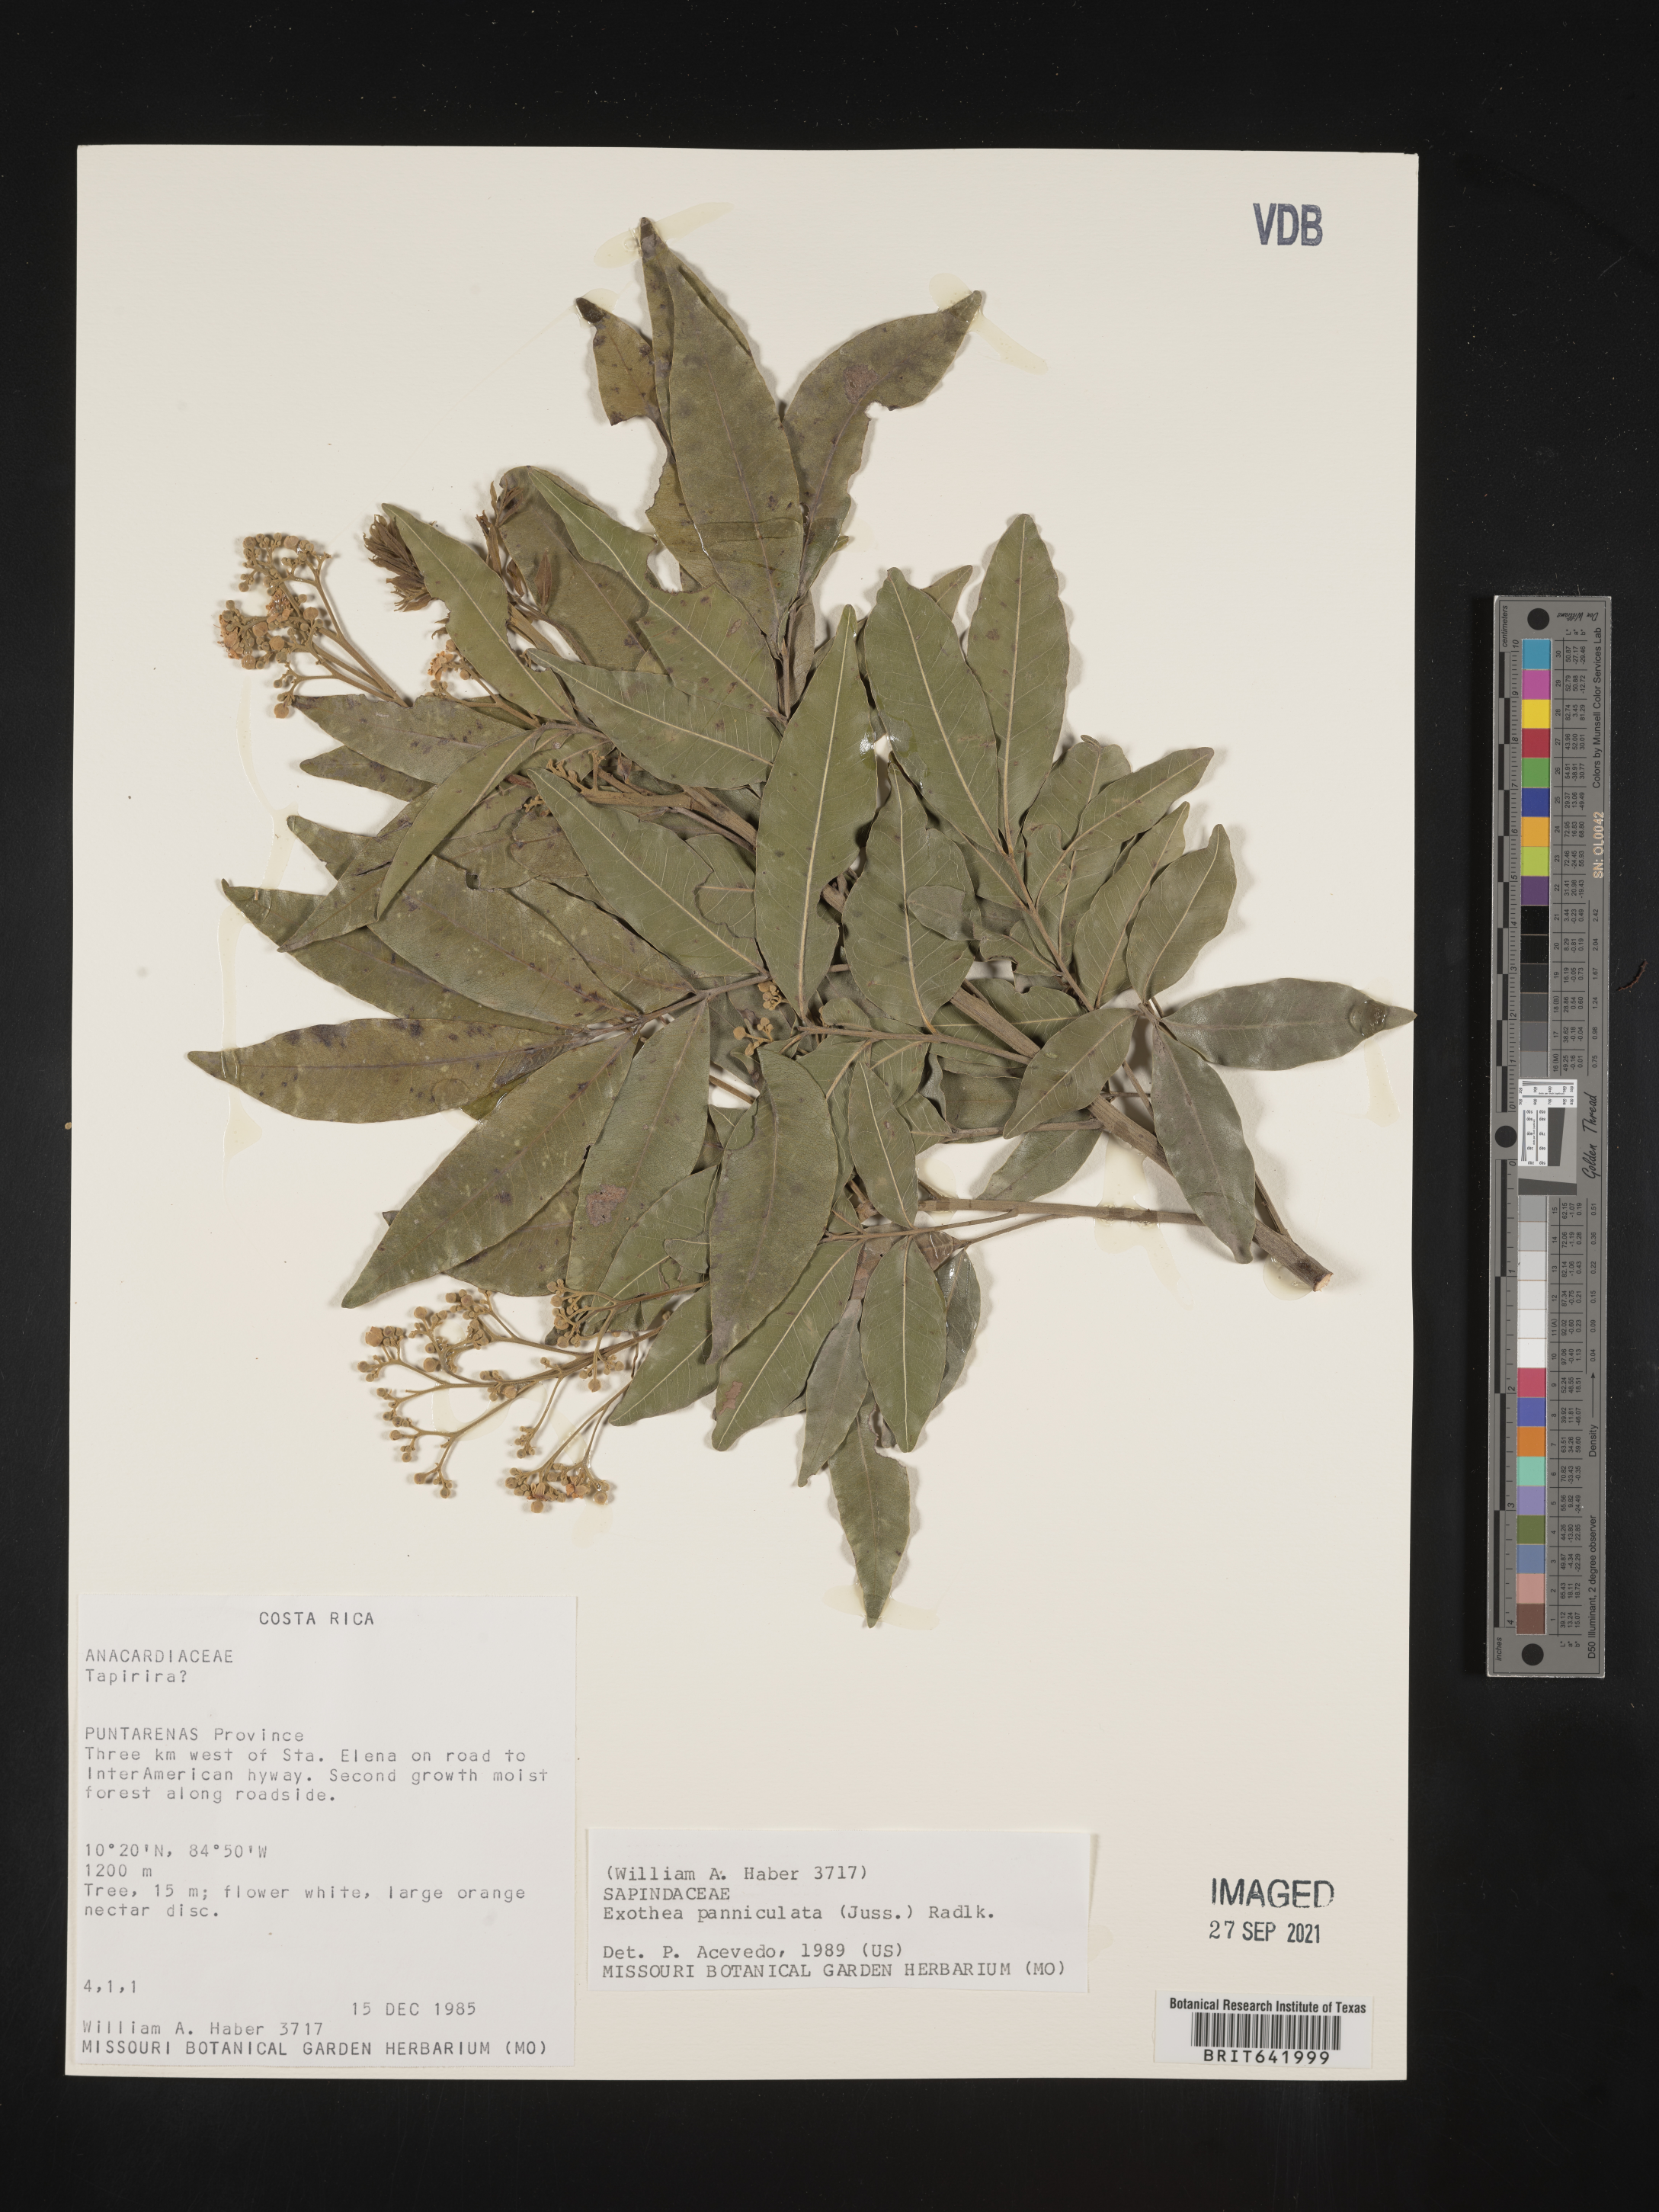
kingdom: Plantae
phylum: Tracheophyta
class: Magnoliopsida
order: Sapindales
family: Sapindaceae
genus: Exothea
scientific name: Exothea
